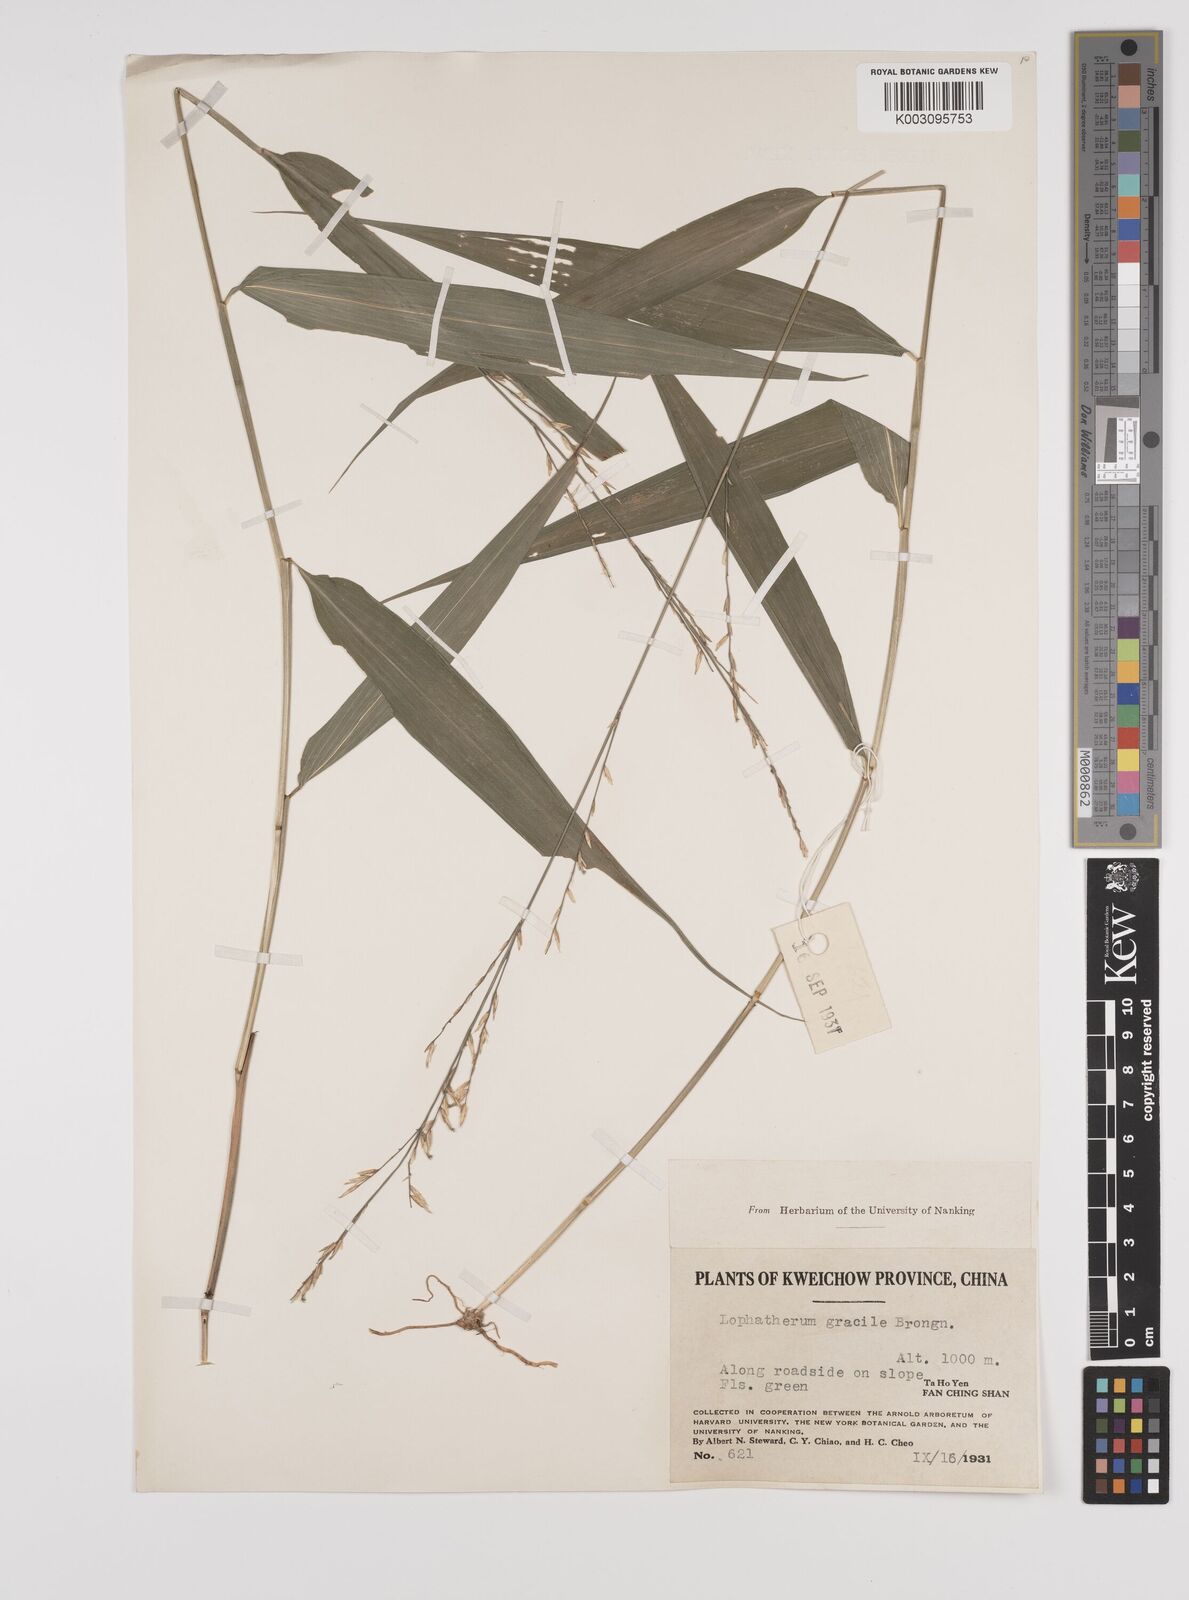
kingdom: Plantae
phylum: Tracheophyta
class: Liliopsida
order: Poales
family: Poaceae
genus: Lophatherum
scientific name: Lophatherum gracile
